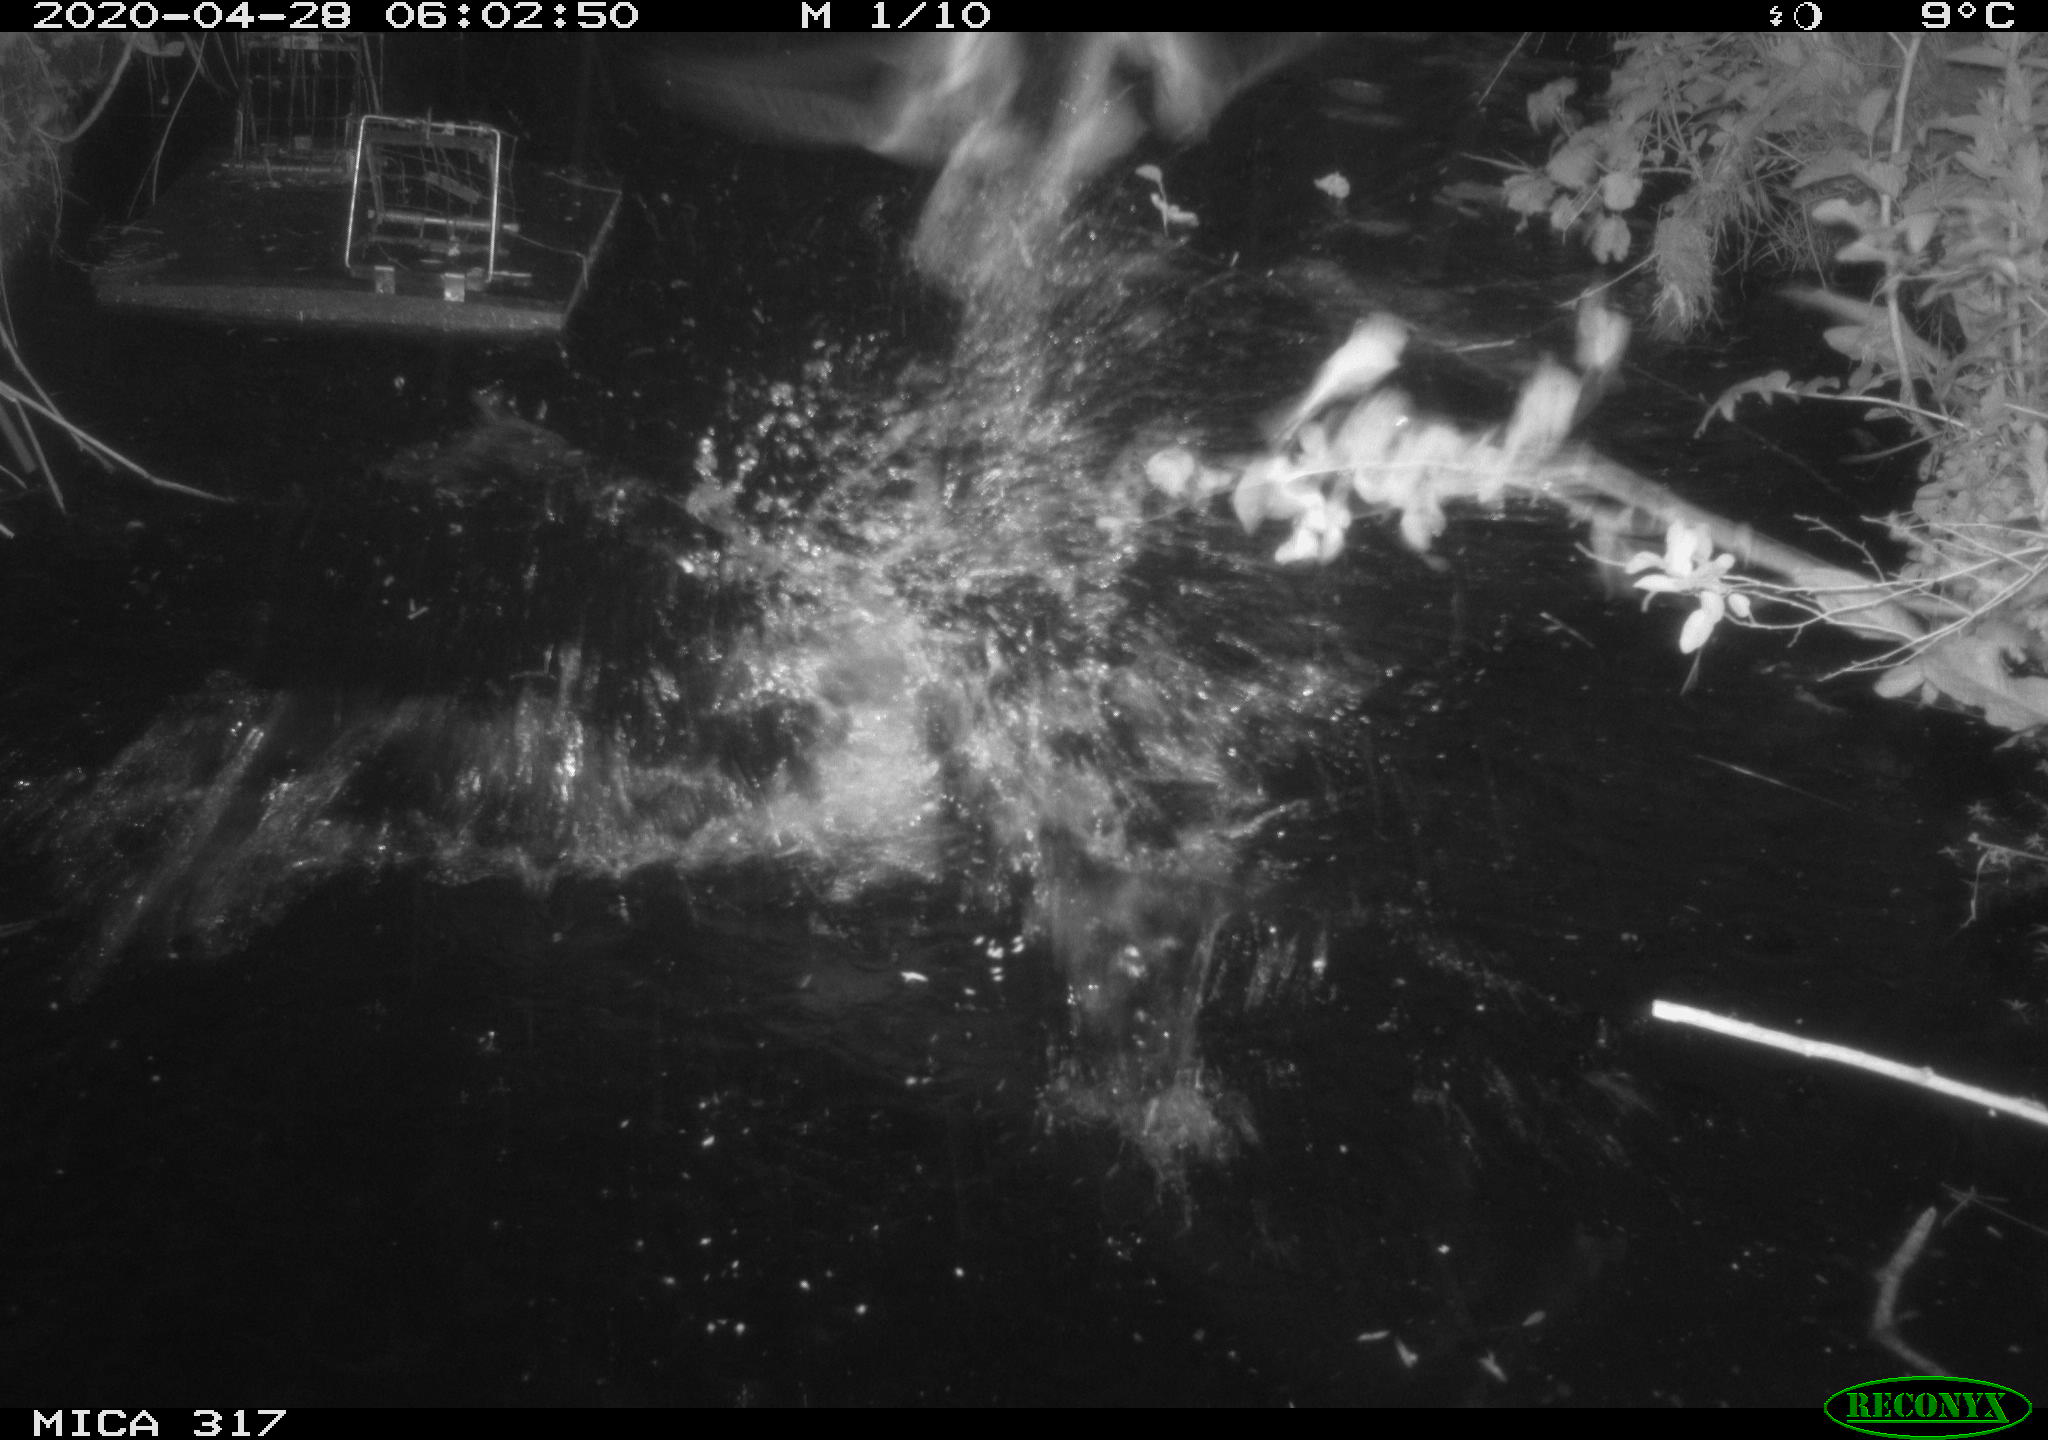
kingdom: Animalia
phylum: Chordata
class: Aves
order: Anseriformes
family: Anatidae
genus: Anas
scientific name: Anas platyrhynchos
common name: Mallard
